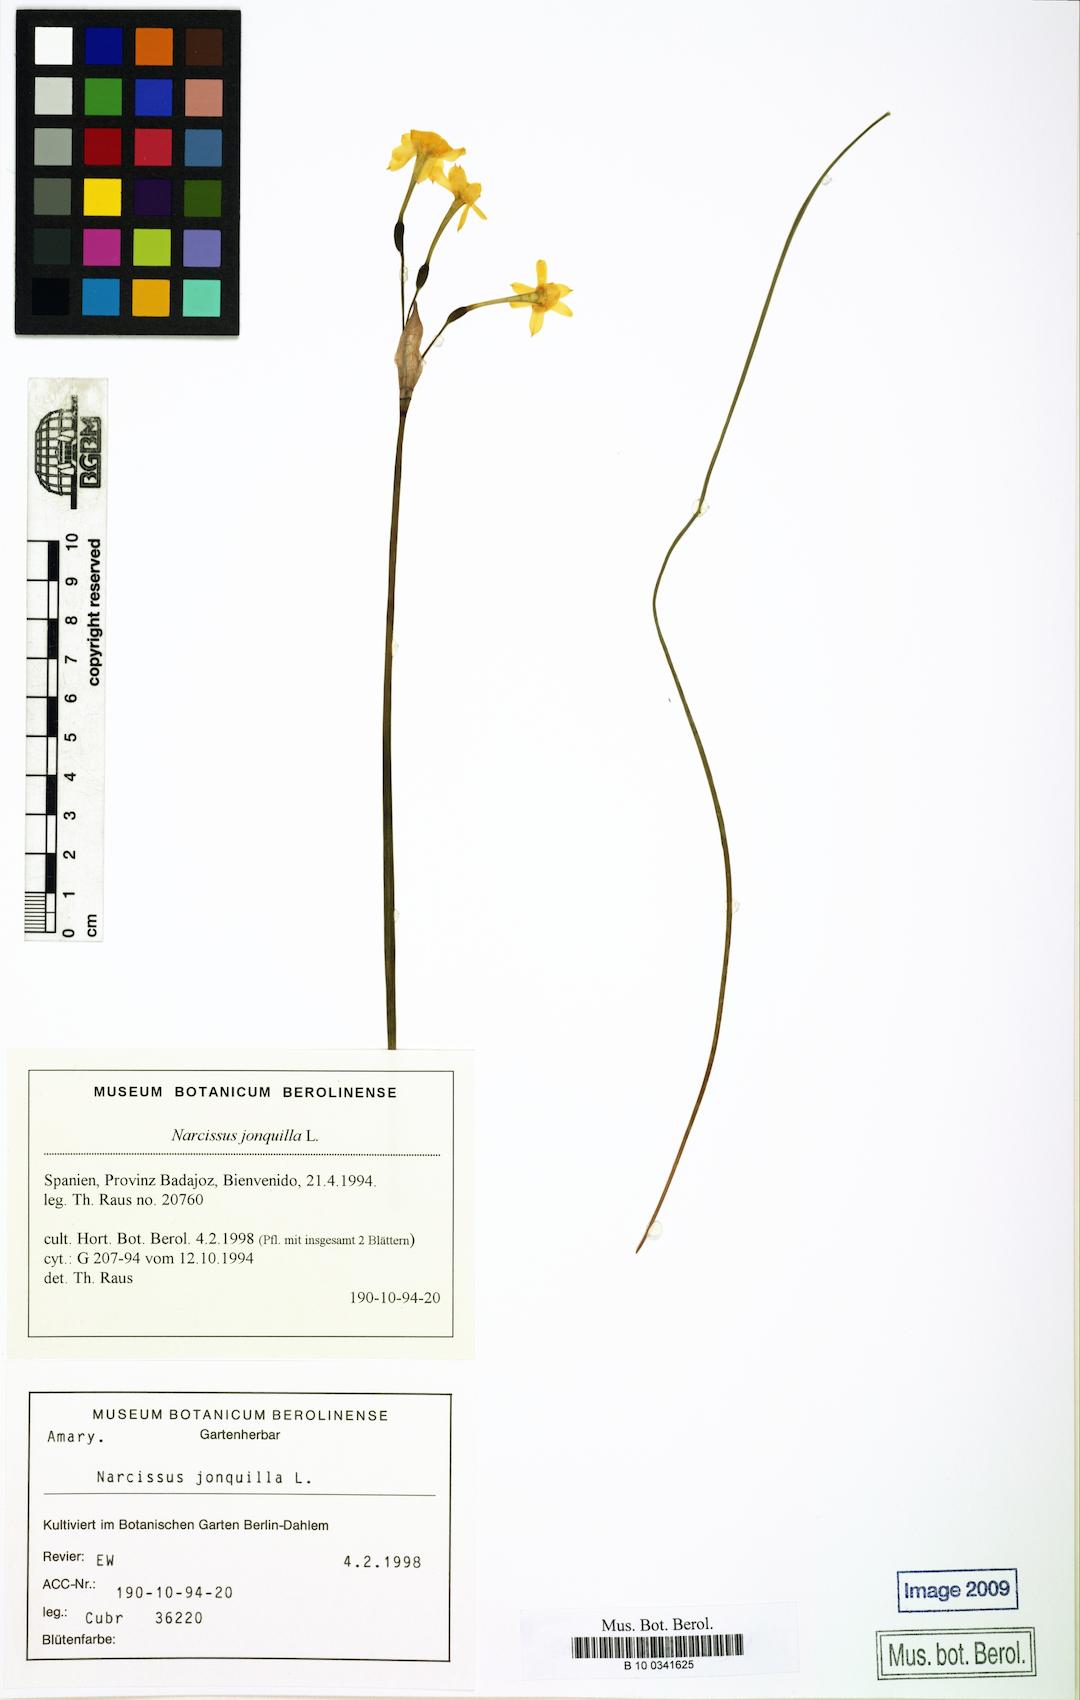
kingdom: Plantae
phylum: Tracheophyta
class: Liliopsida
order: Asparagales
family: Amaryllidaceae
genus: Narcissus
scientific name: Narcissus jonquilla
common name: Jonquil
